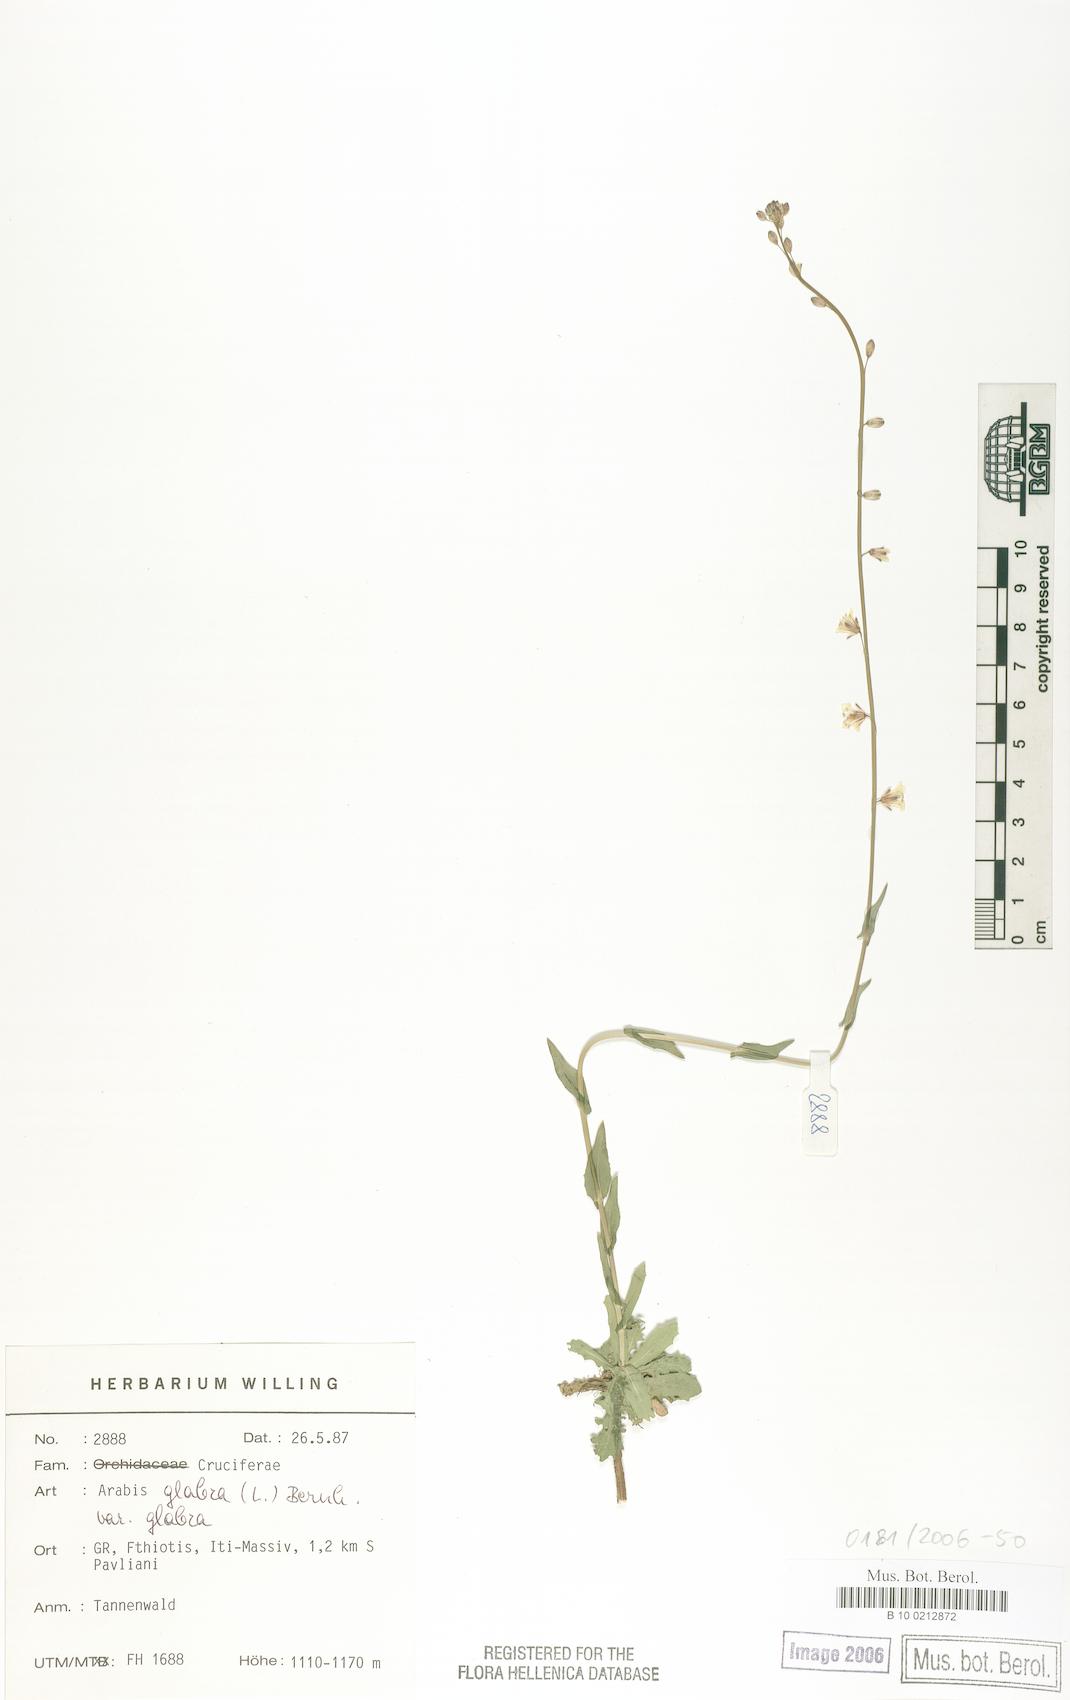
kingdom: Plantae
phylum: Tracheophyta
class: Magnoliopsida
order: Brassicales
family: Brassicaceae
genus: Turritis
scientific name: Turritis glabra
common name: Tower rockcress
